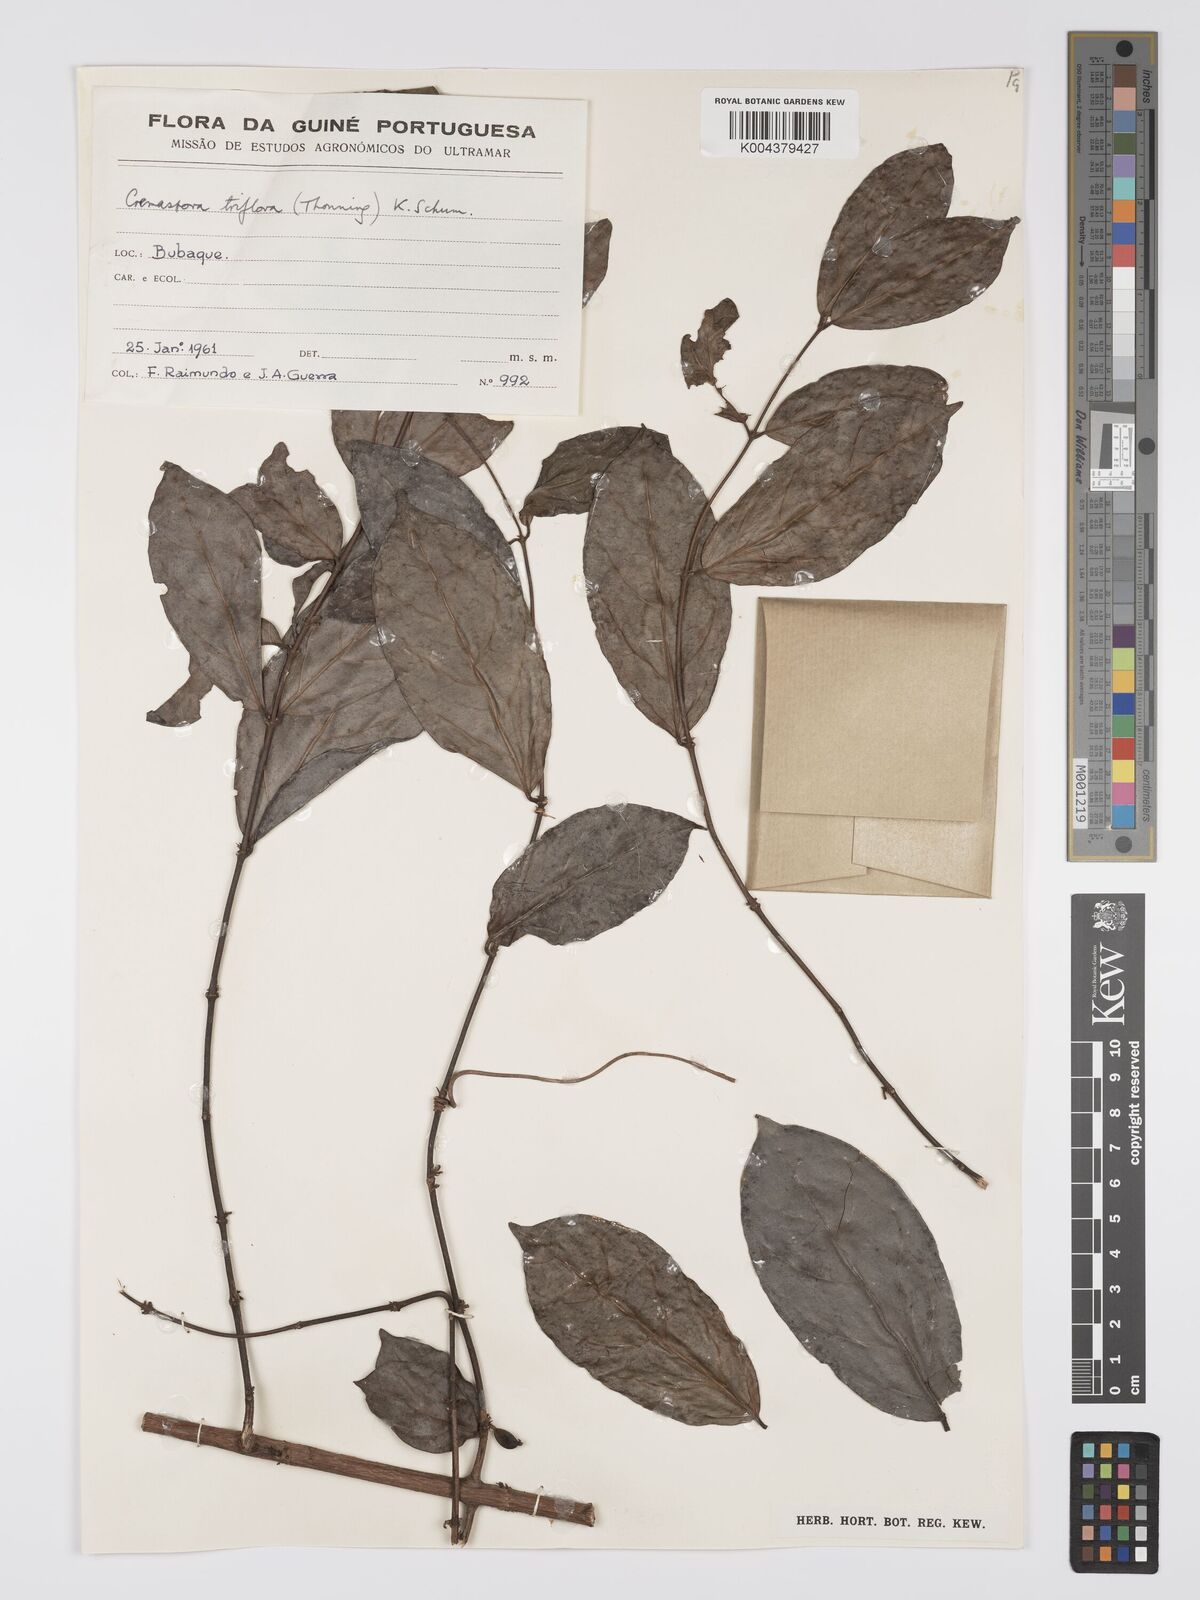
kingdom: Plantae
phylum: Tracheophyta
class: Magnoliopsida
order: Gentianales
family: Rubiaceae
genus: Cremaspora
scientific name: Cremaspora triflora
